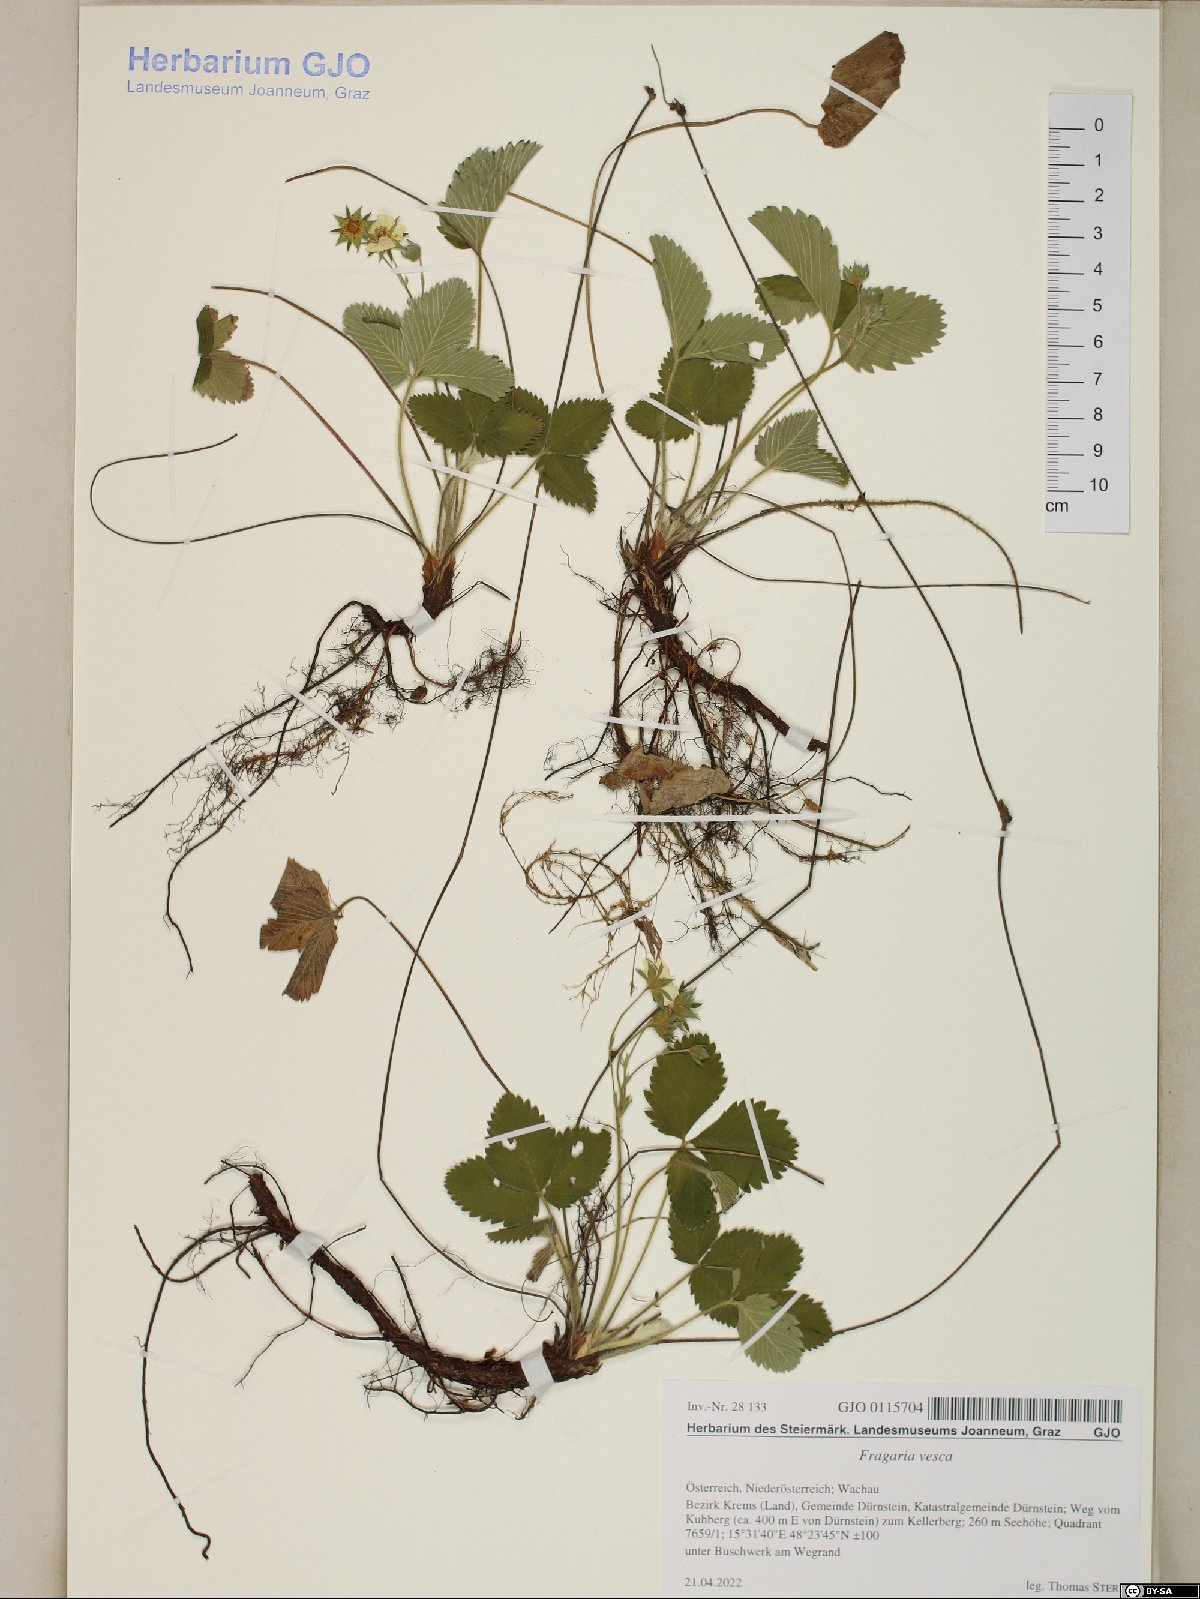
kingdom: Plantae
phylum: Tracheophyta
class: Magnoliopsida
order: Rosales
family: Rosaceae
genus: Fragaria
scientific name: Fragaria vesca
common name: Wild strawberry
